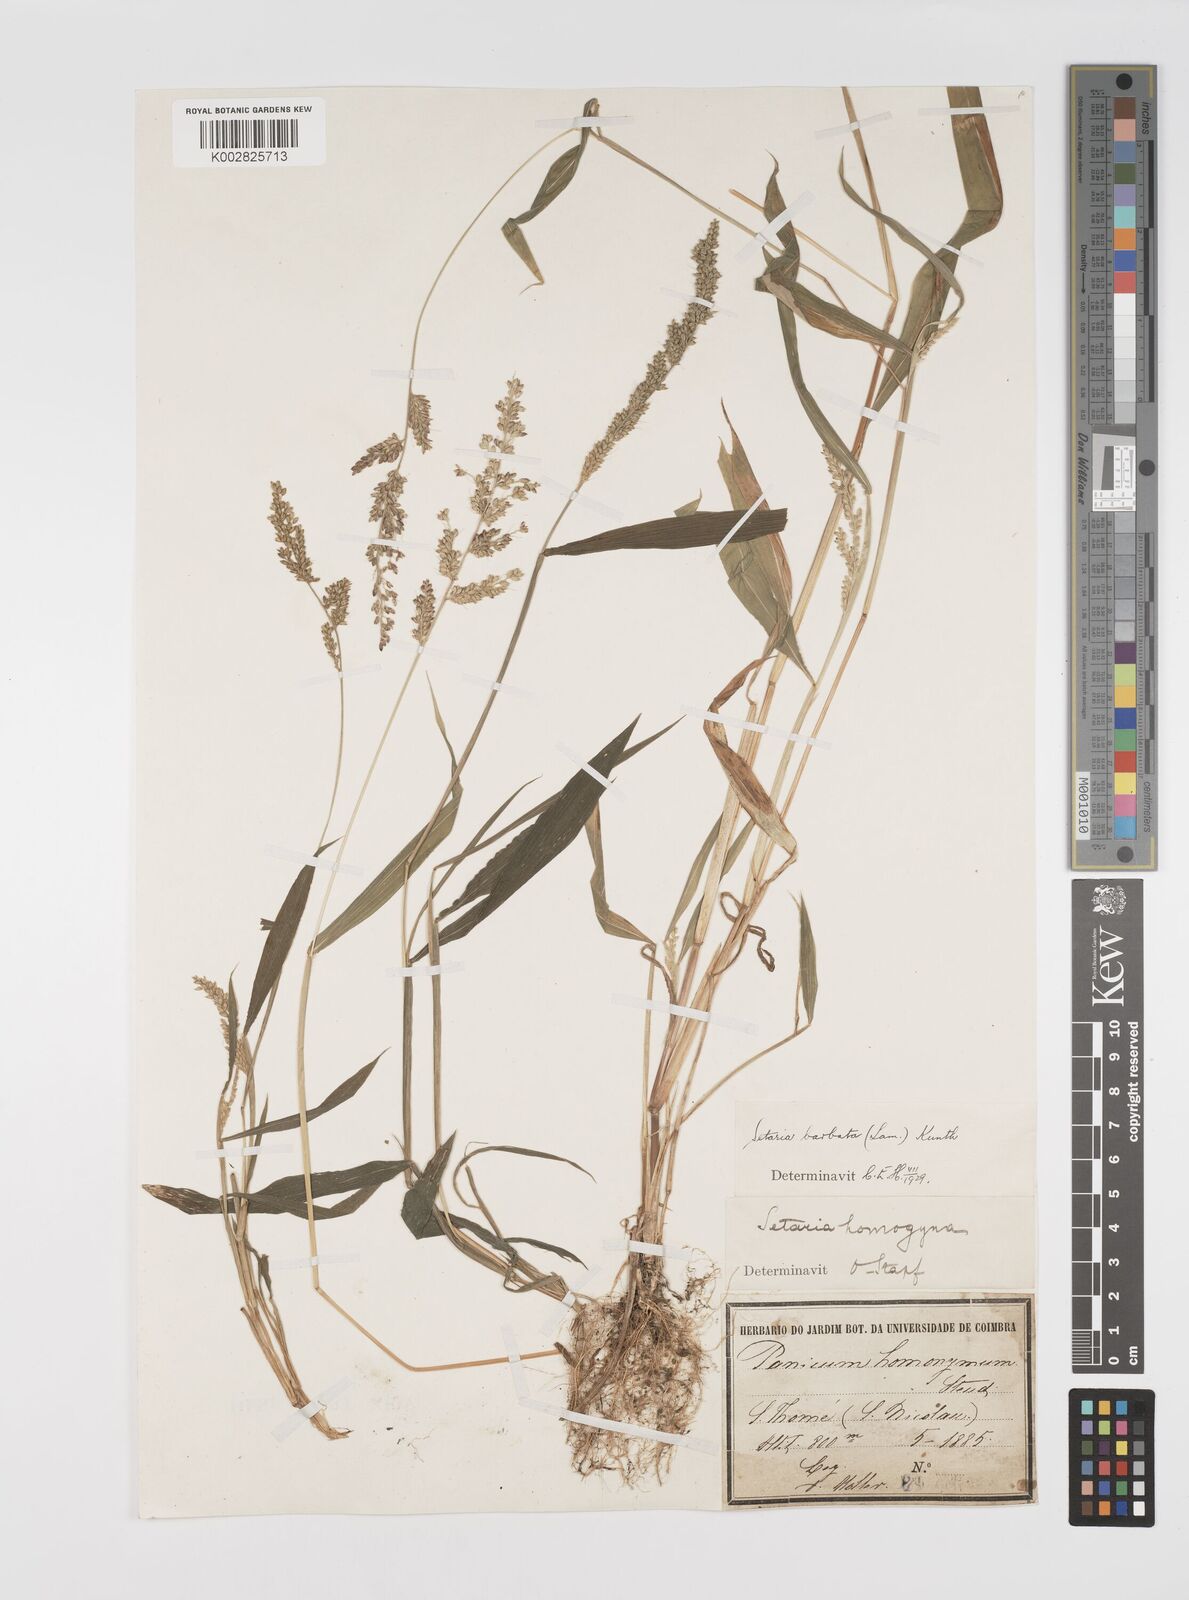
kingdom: Plantae
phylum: Tracheophyta
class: Liliopsida
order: Poales
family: Poaceae
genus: Setaria
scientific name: Setaria barbata
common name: East indian bristlegrass
